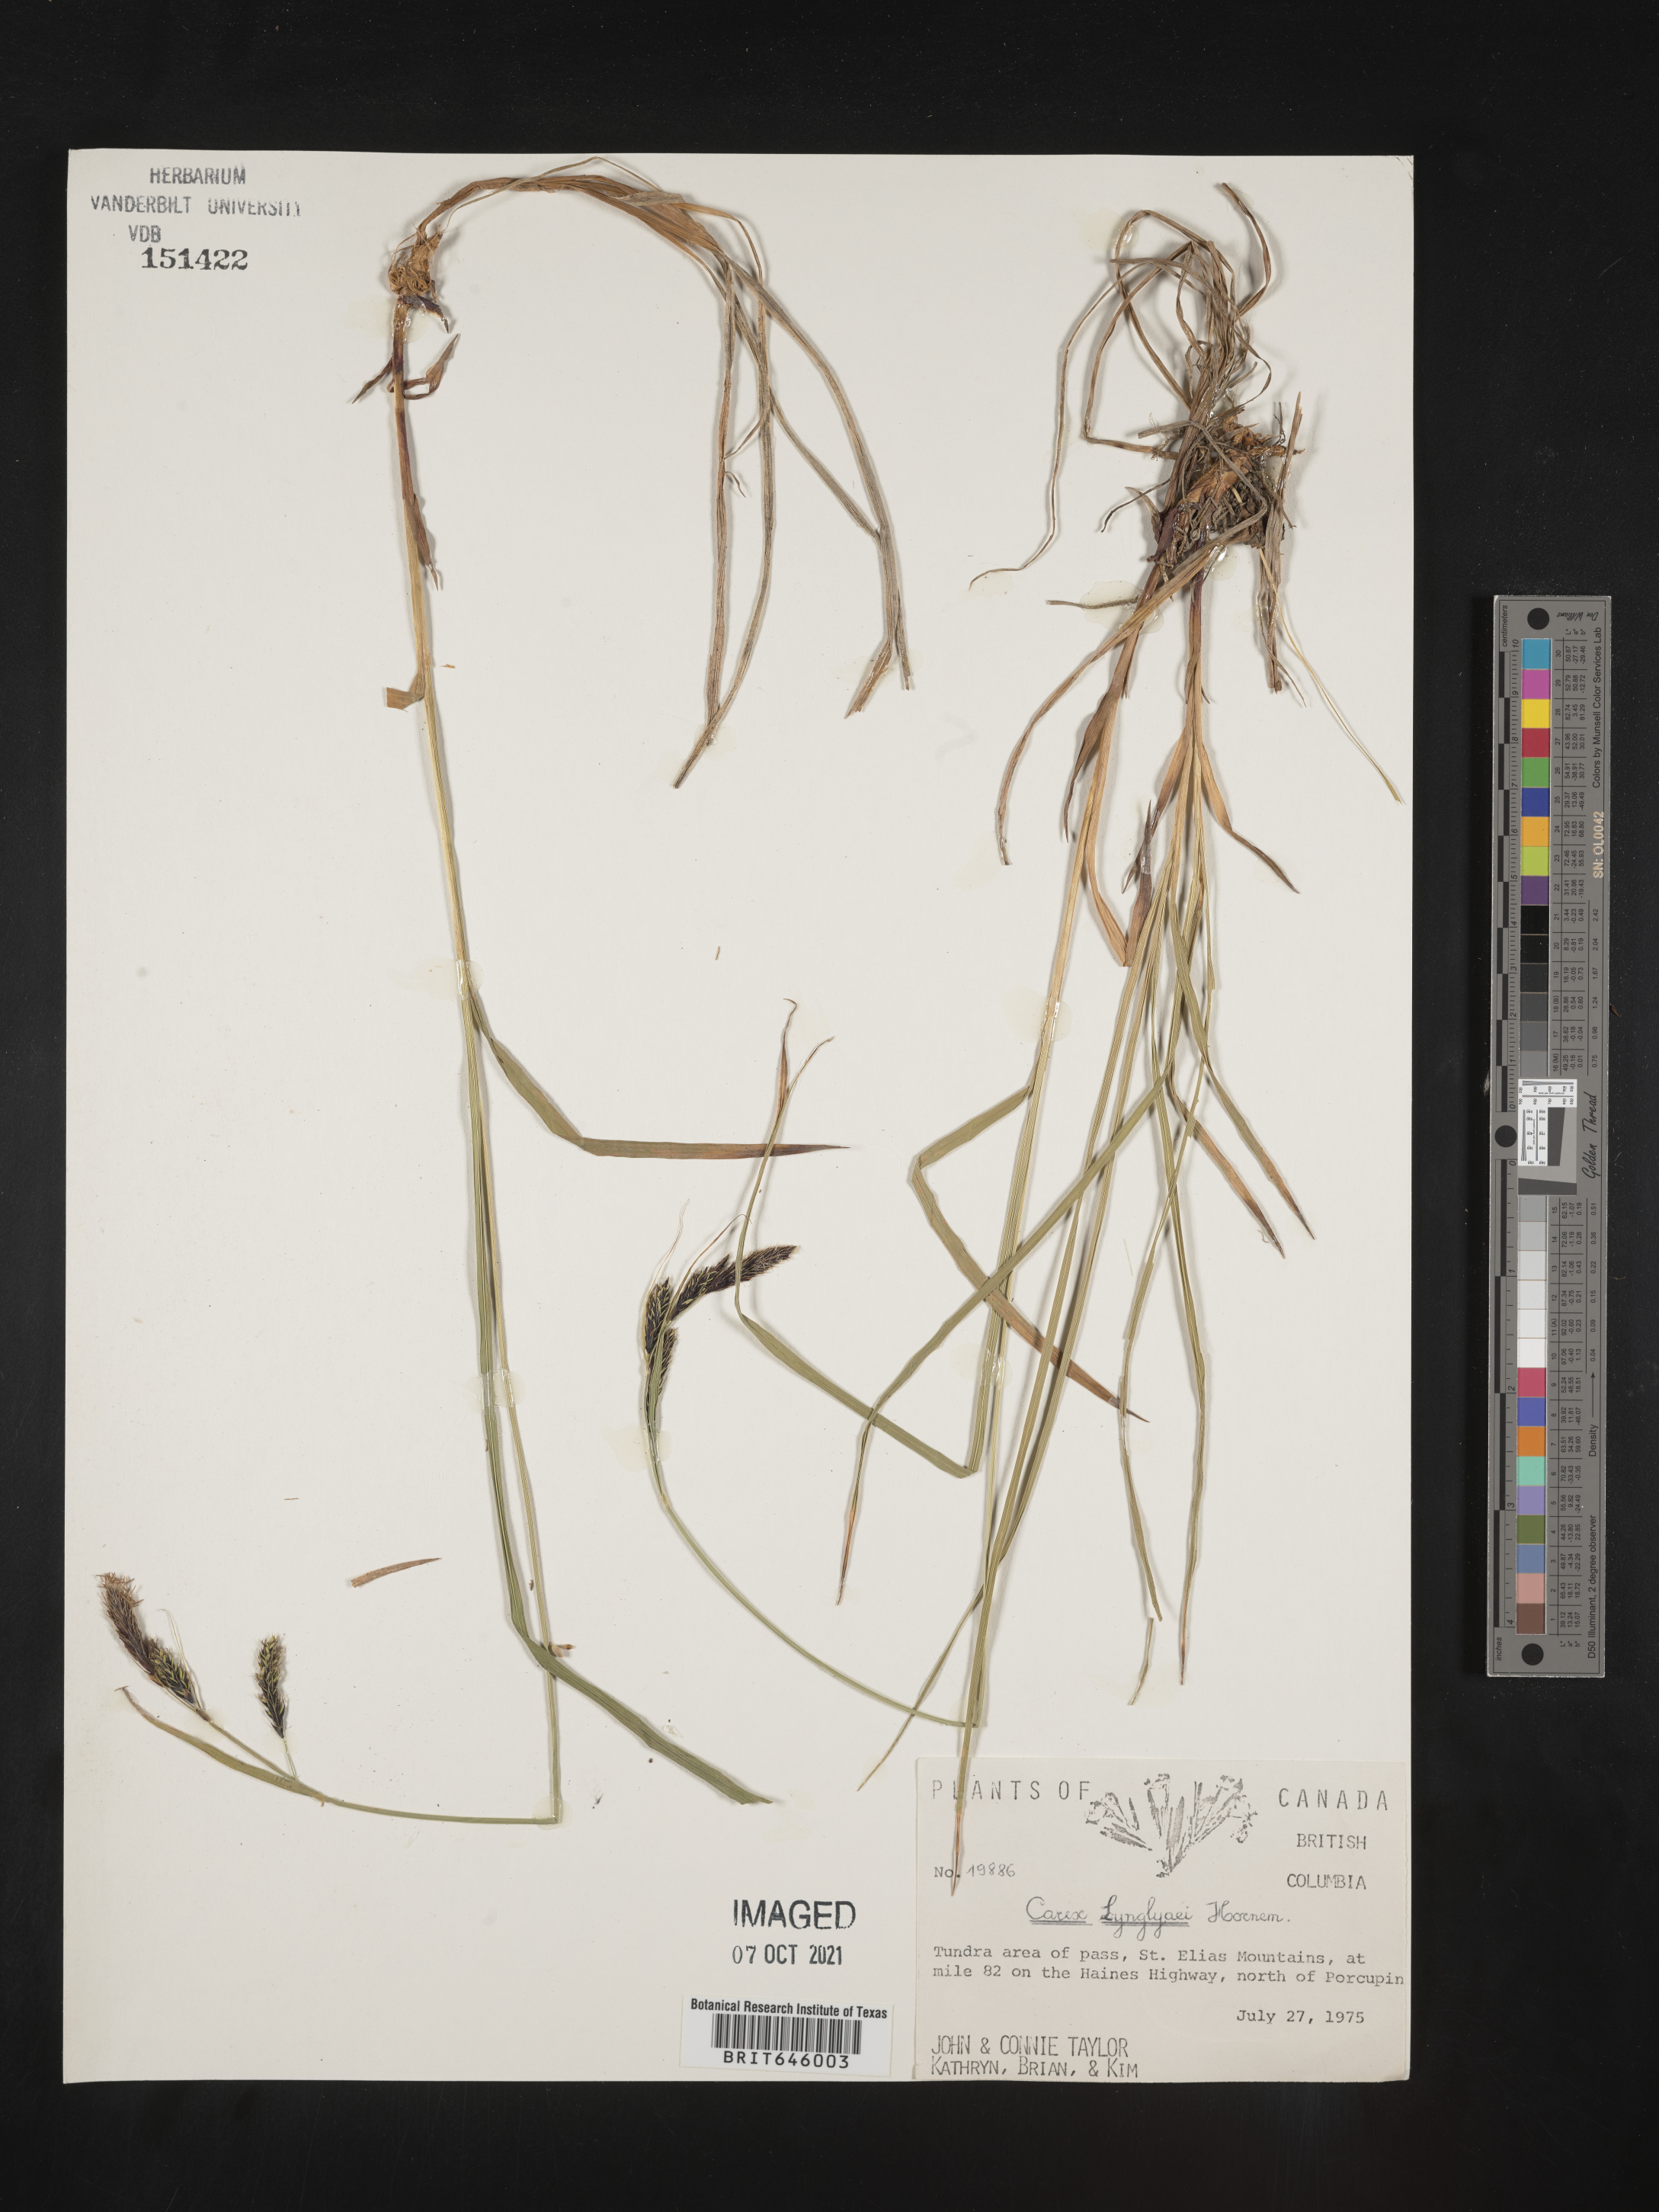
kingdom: Plantae
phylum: Tracheophyta
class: Liliopsida
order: Poales
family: Cyperaceae
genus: Carex
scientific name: Carex lyngbyei
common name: Lyngbye's sedge
